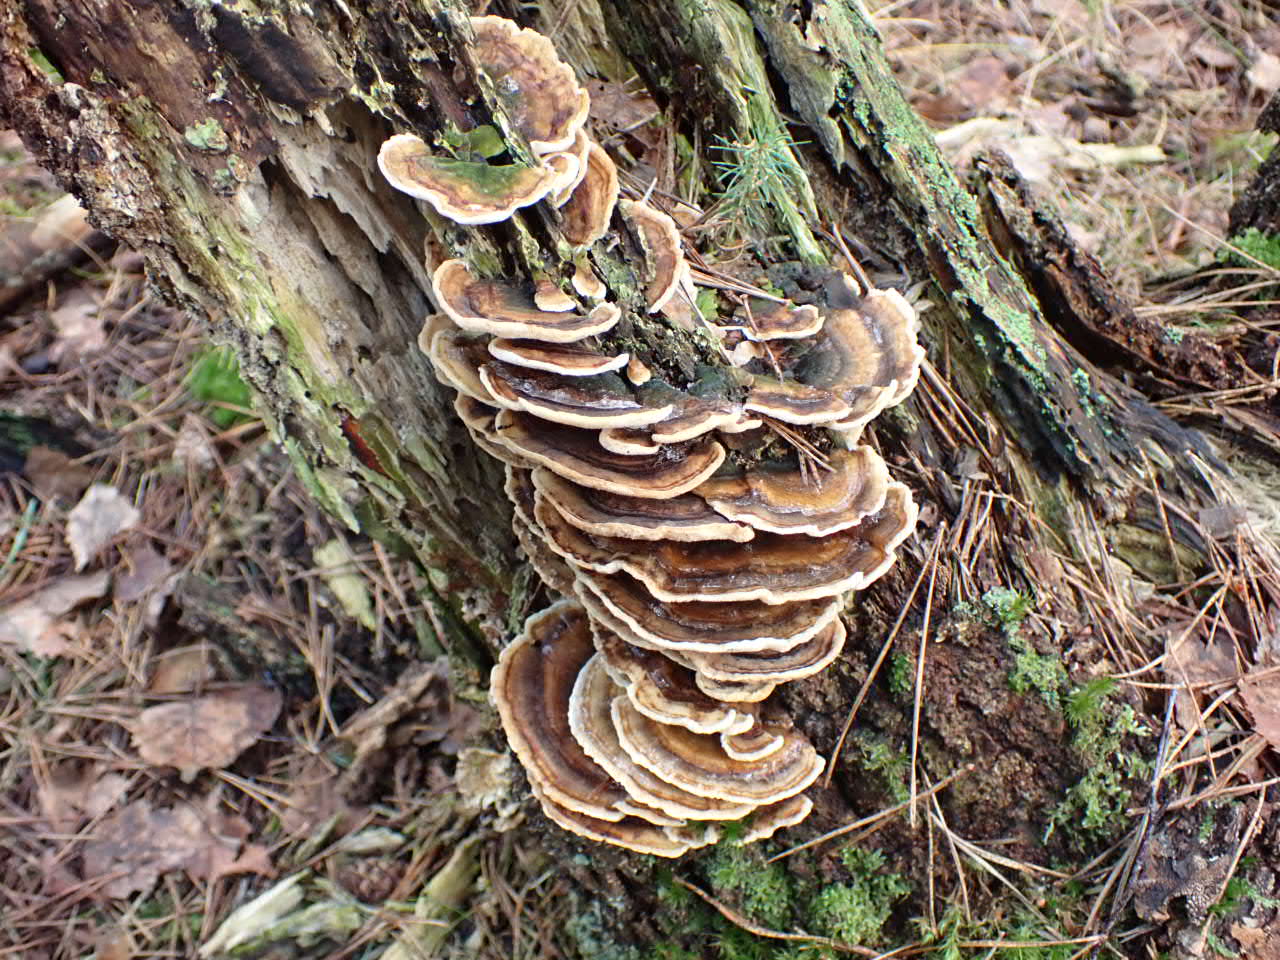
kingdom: Fungi
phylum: Basidiomycota
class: Agaricomycetes
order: Polyporales
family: Polyporaceae
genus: Trametes
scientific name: Trametes versicolor
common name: broget læderporesvamp
